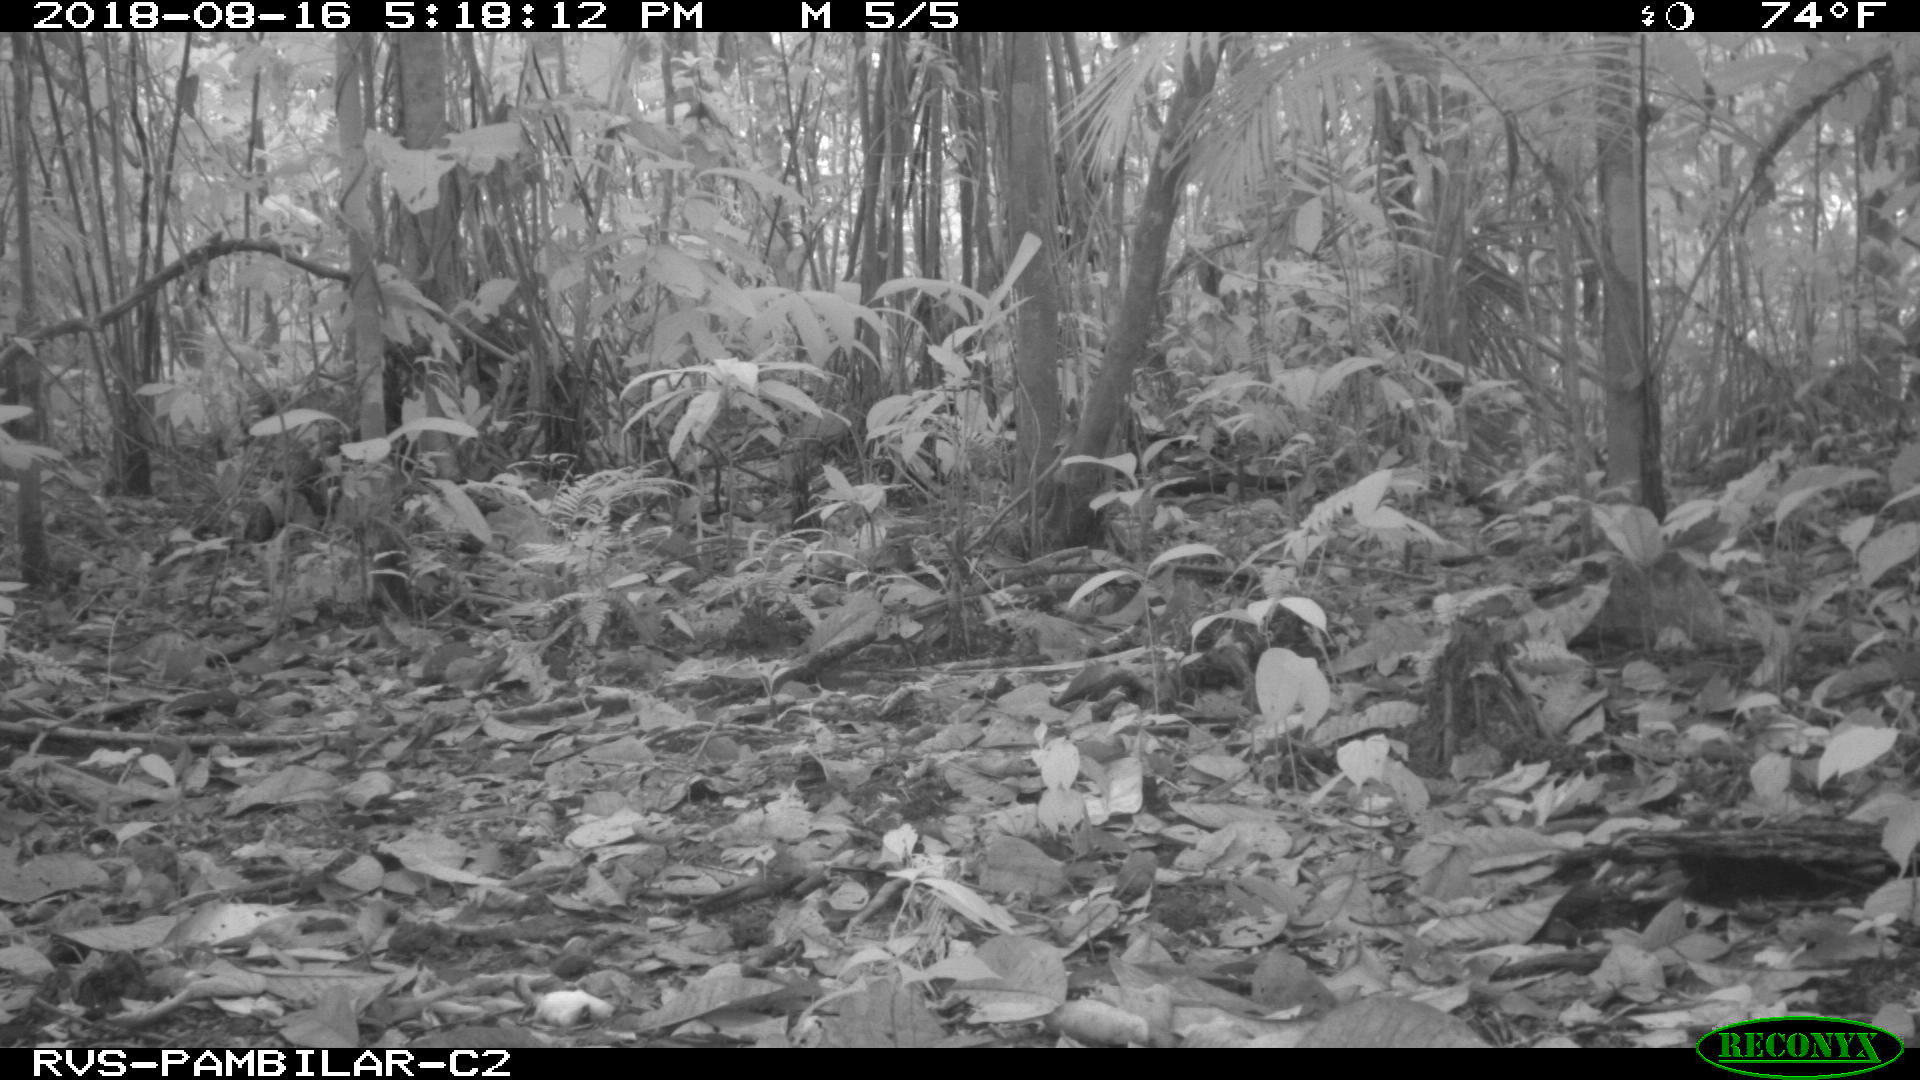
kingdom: Animalia
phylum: Chordata
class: Mammalia
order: Artiodactyla
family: Tayassuidae
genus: Pecari
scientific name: Pecari tajacu
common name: Collared peccary
